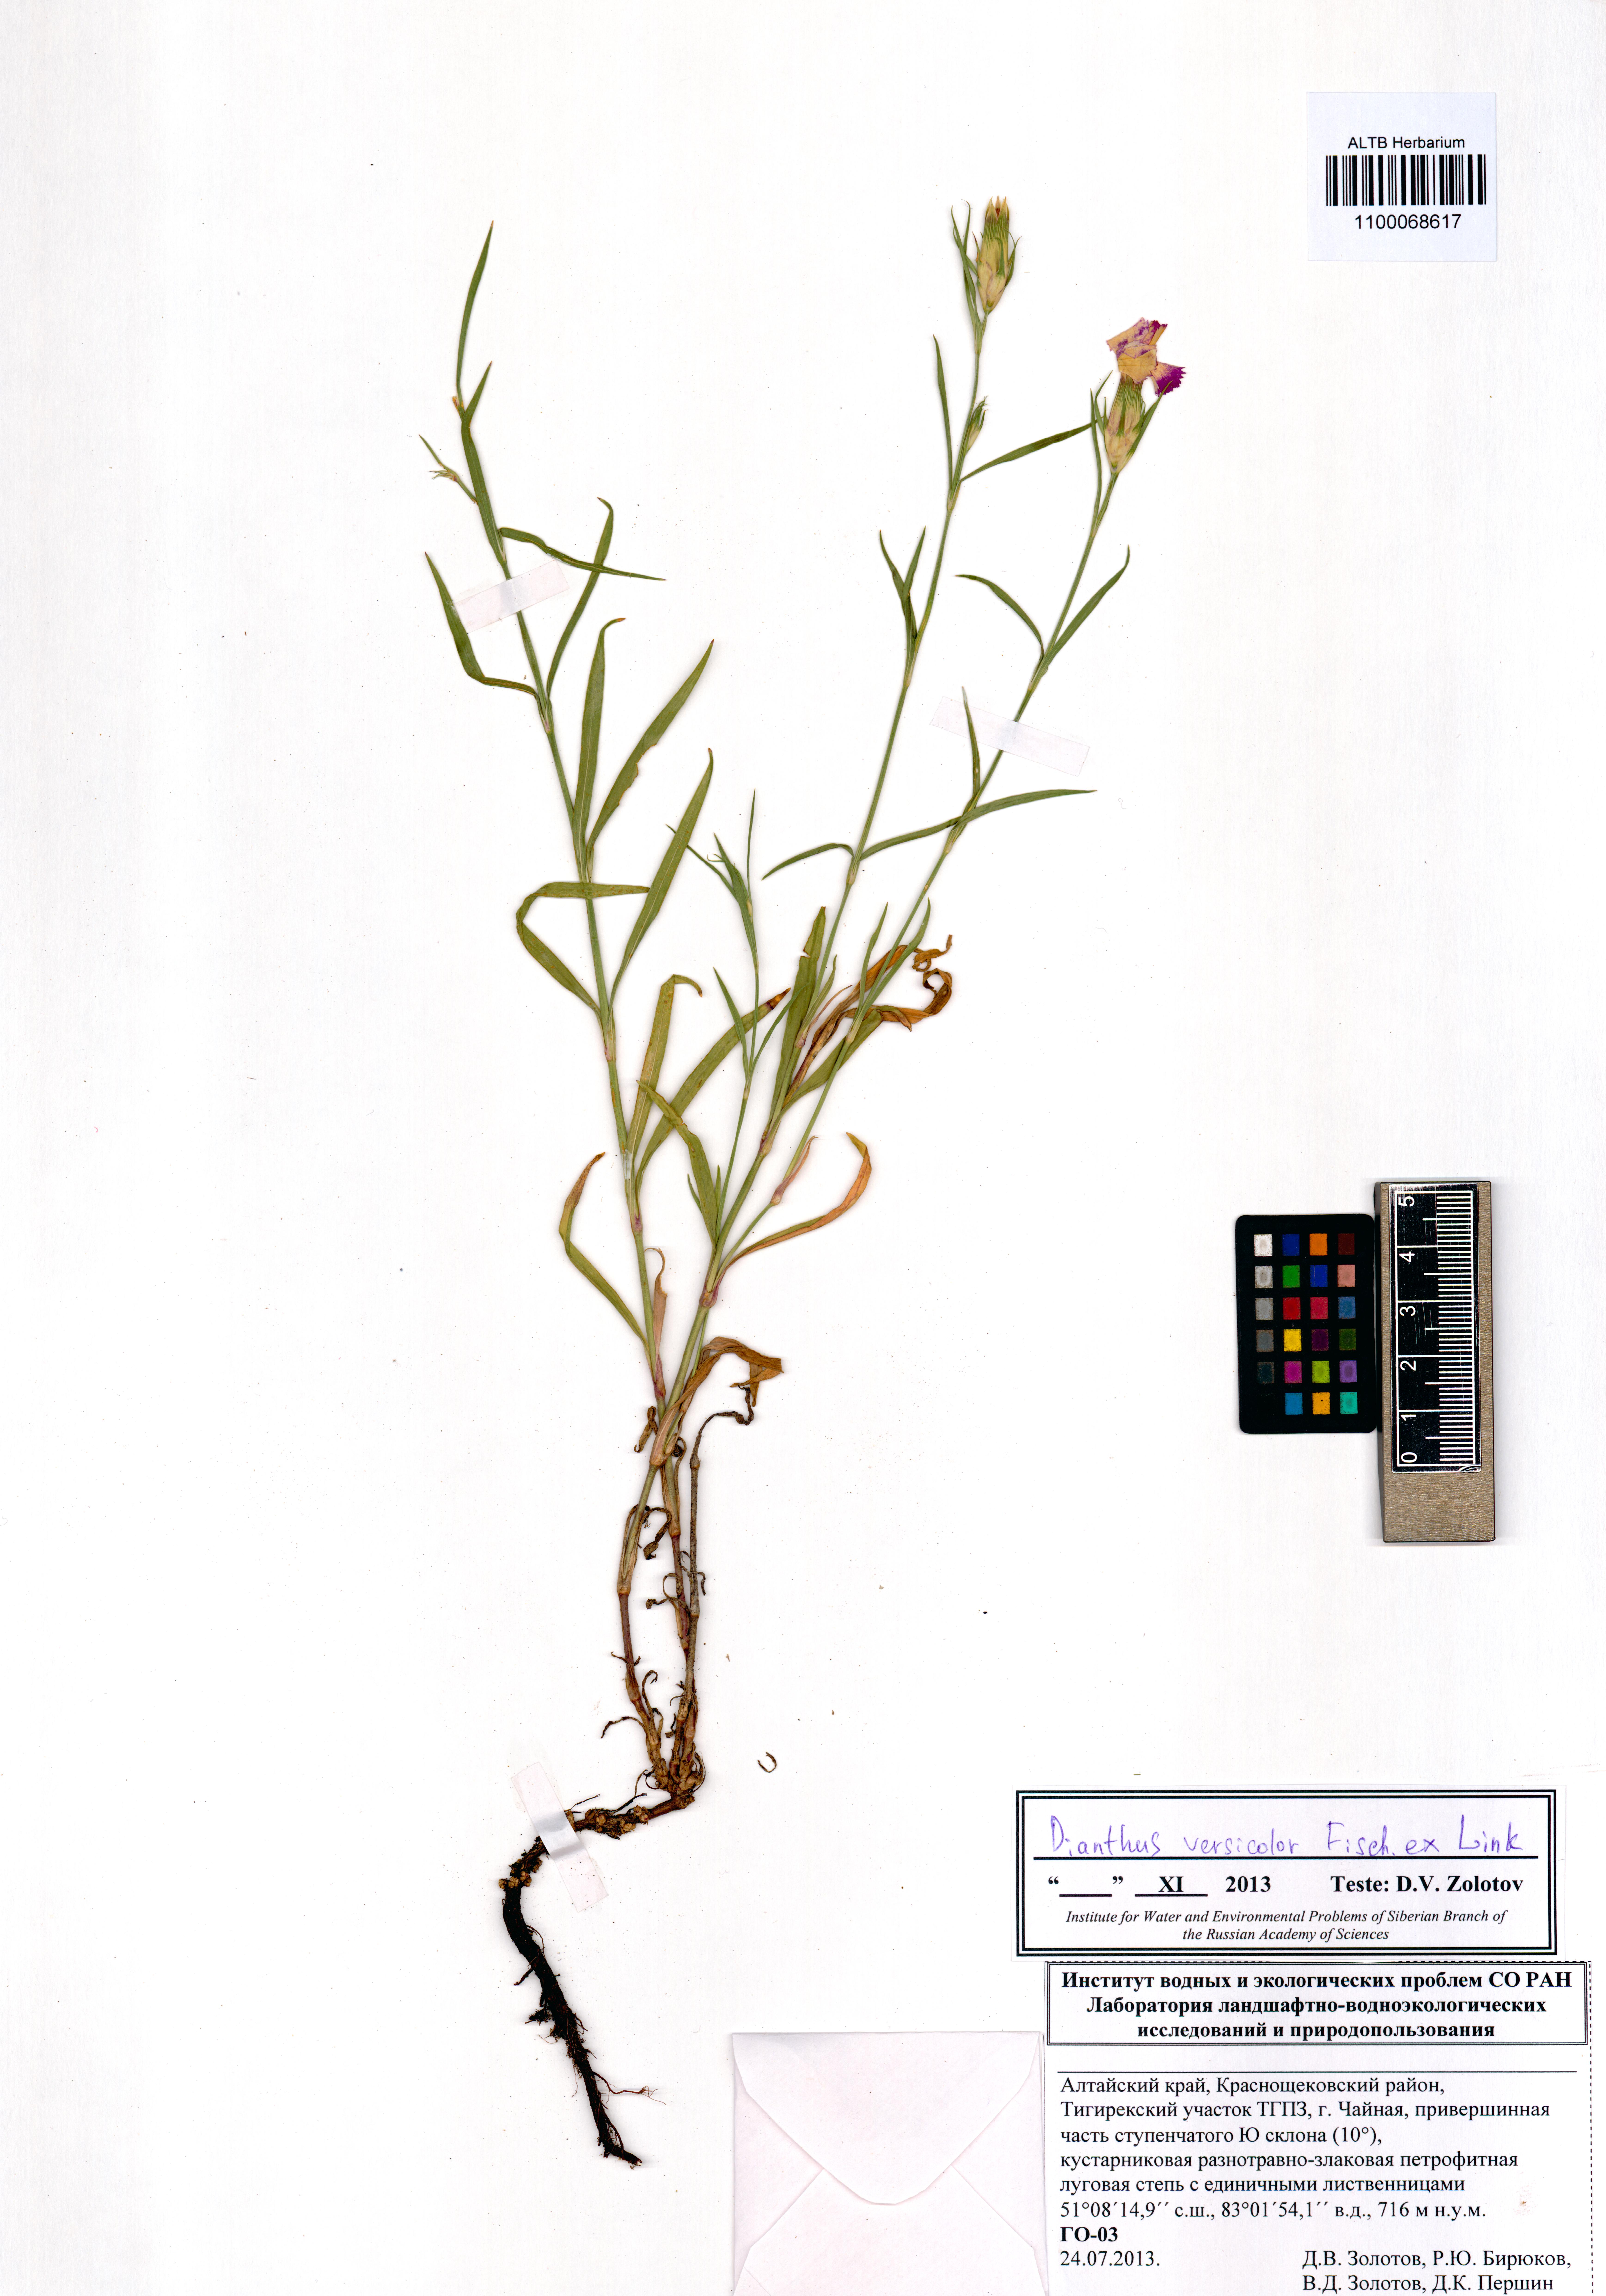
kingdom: Plantae
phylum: Tracheophyta
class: Magnoliopsida
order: Caryophyllales
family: Caryophyllaceae
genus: Dianthus
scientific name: Dianthus chinensis
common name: Rainbow pink
